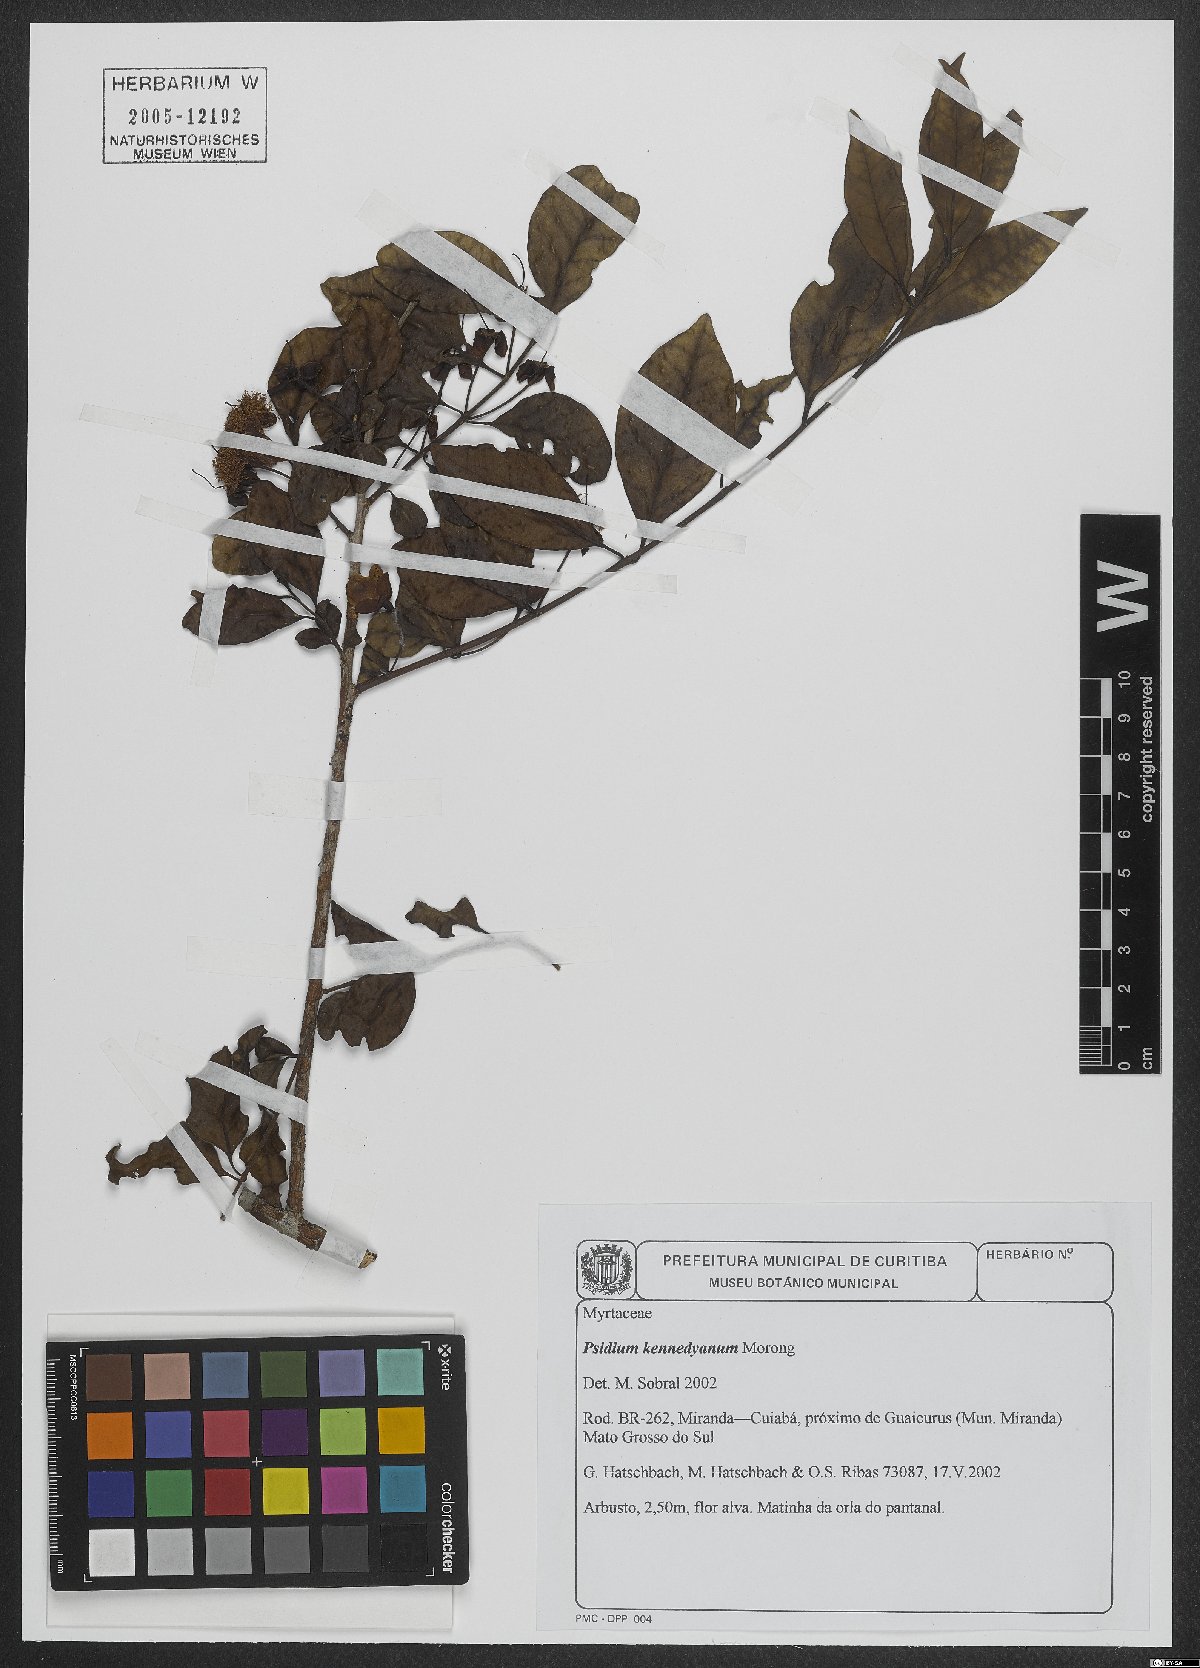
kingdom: Plantae
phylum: Tracheophyta
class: Magnoliopsida
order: Myrtales
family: Myrtaceae
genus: Psidium
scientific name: Psidium kennedyanum
